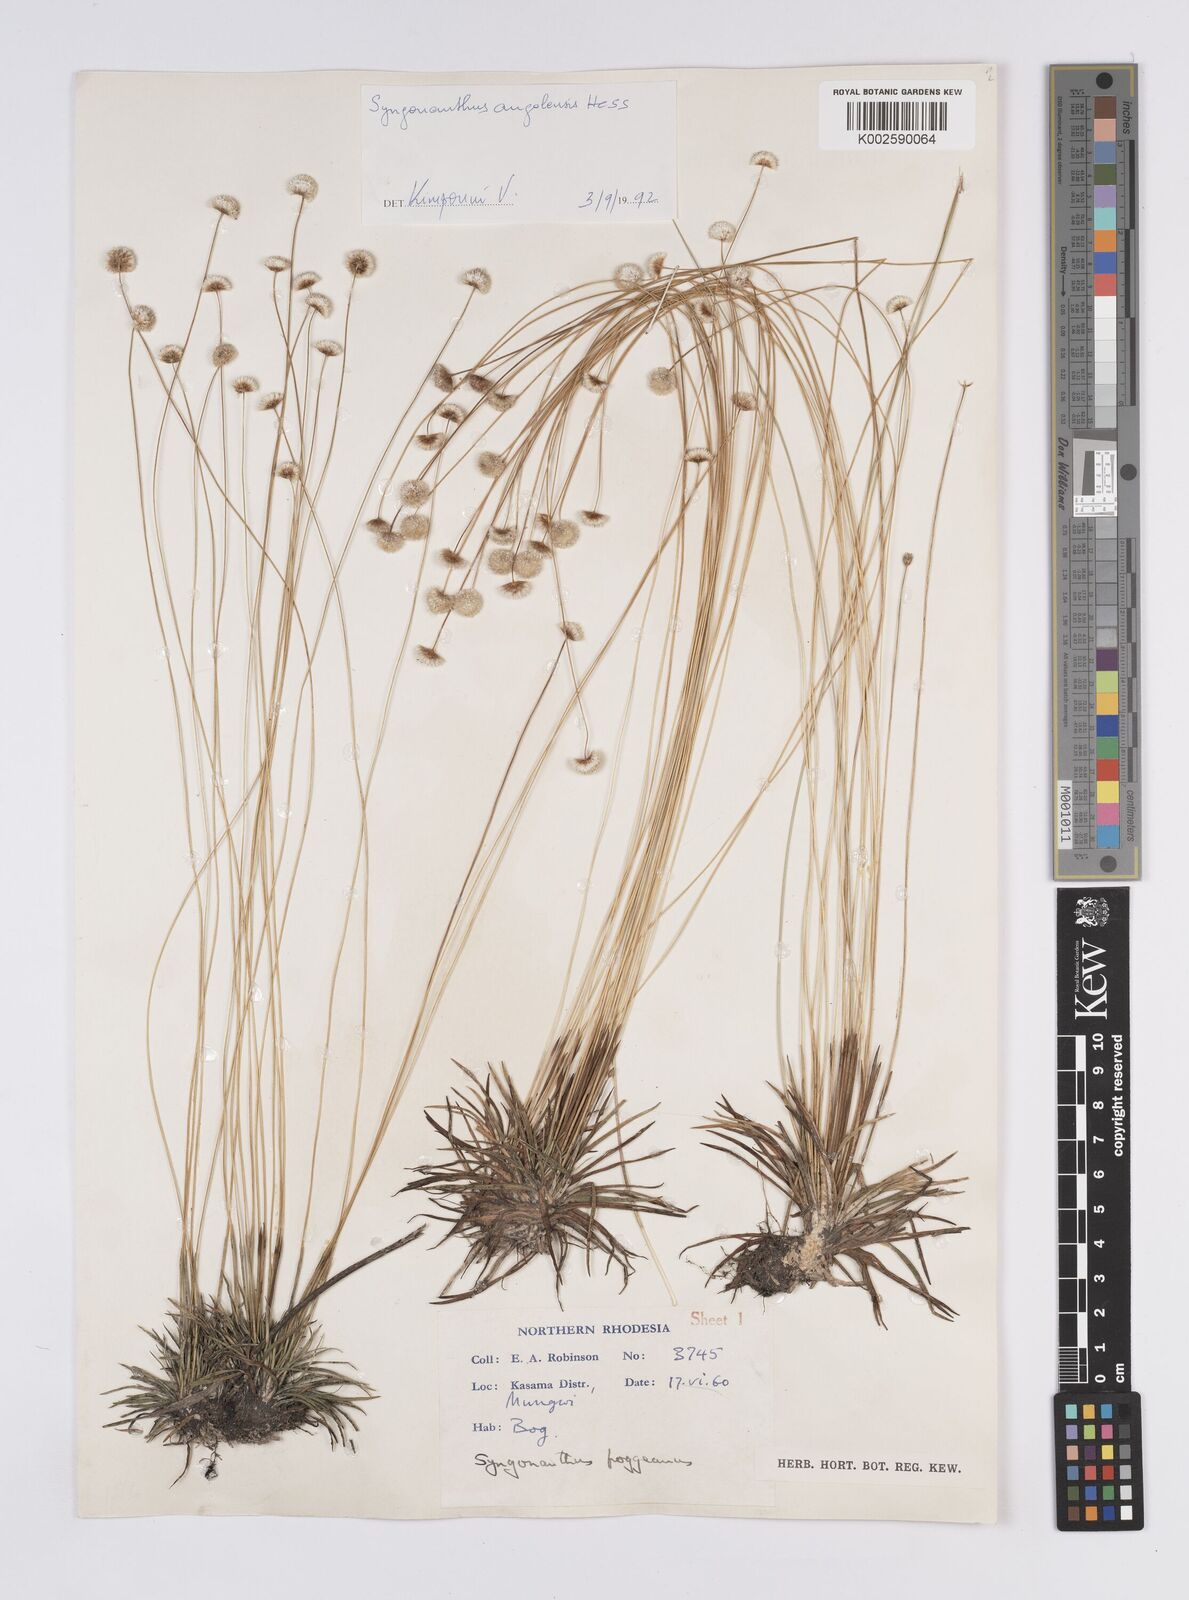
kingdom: Plantae
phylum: Tracheophyta
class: Liliopsida
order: Poales
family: Eriocaulaceae
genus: Syngonanthus
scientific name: Syngonanthus angolensis
